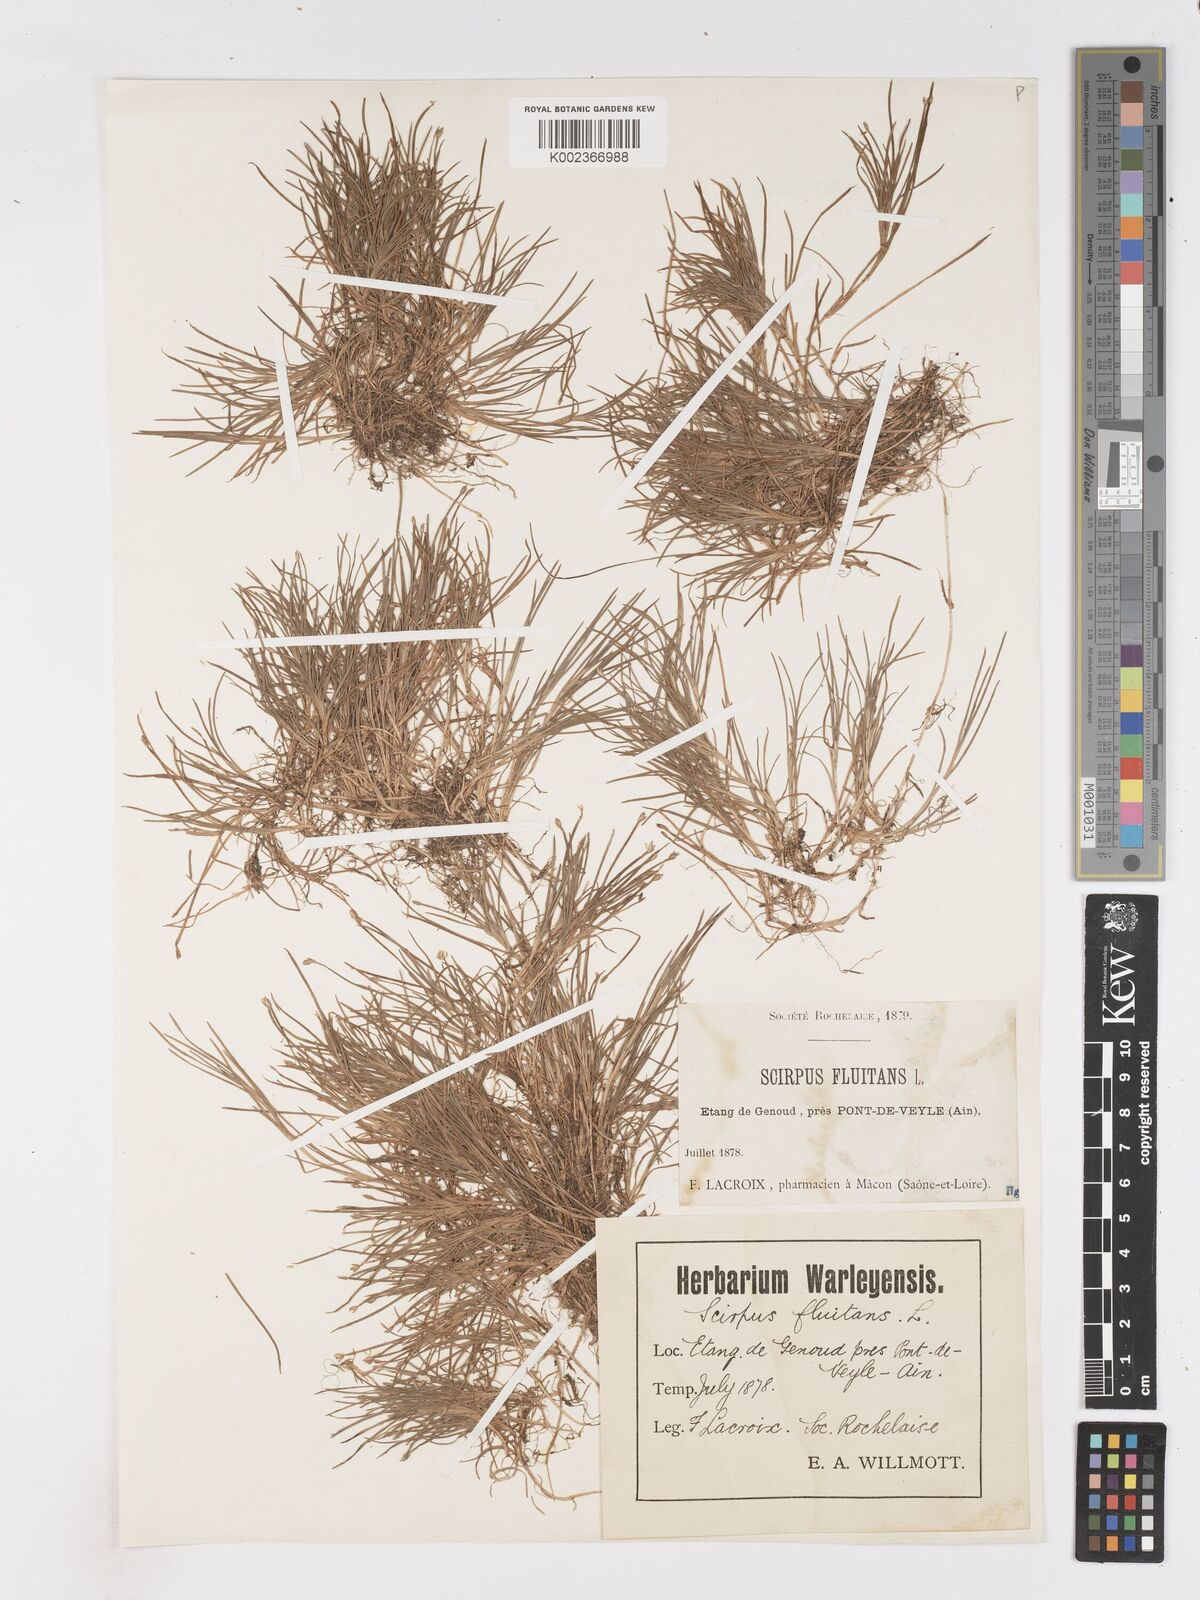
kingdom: Plantae
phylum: Tracheophyta
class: Liliopsida
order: Poales
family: Cyperaceae
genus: Isolepis
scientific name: Isolepis fluitans
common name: Floating club-rush
